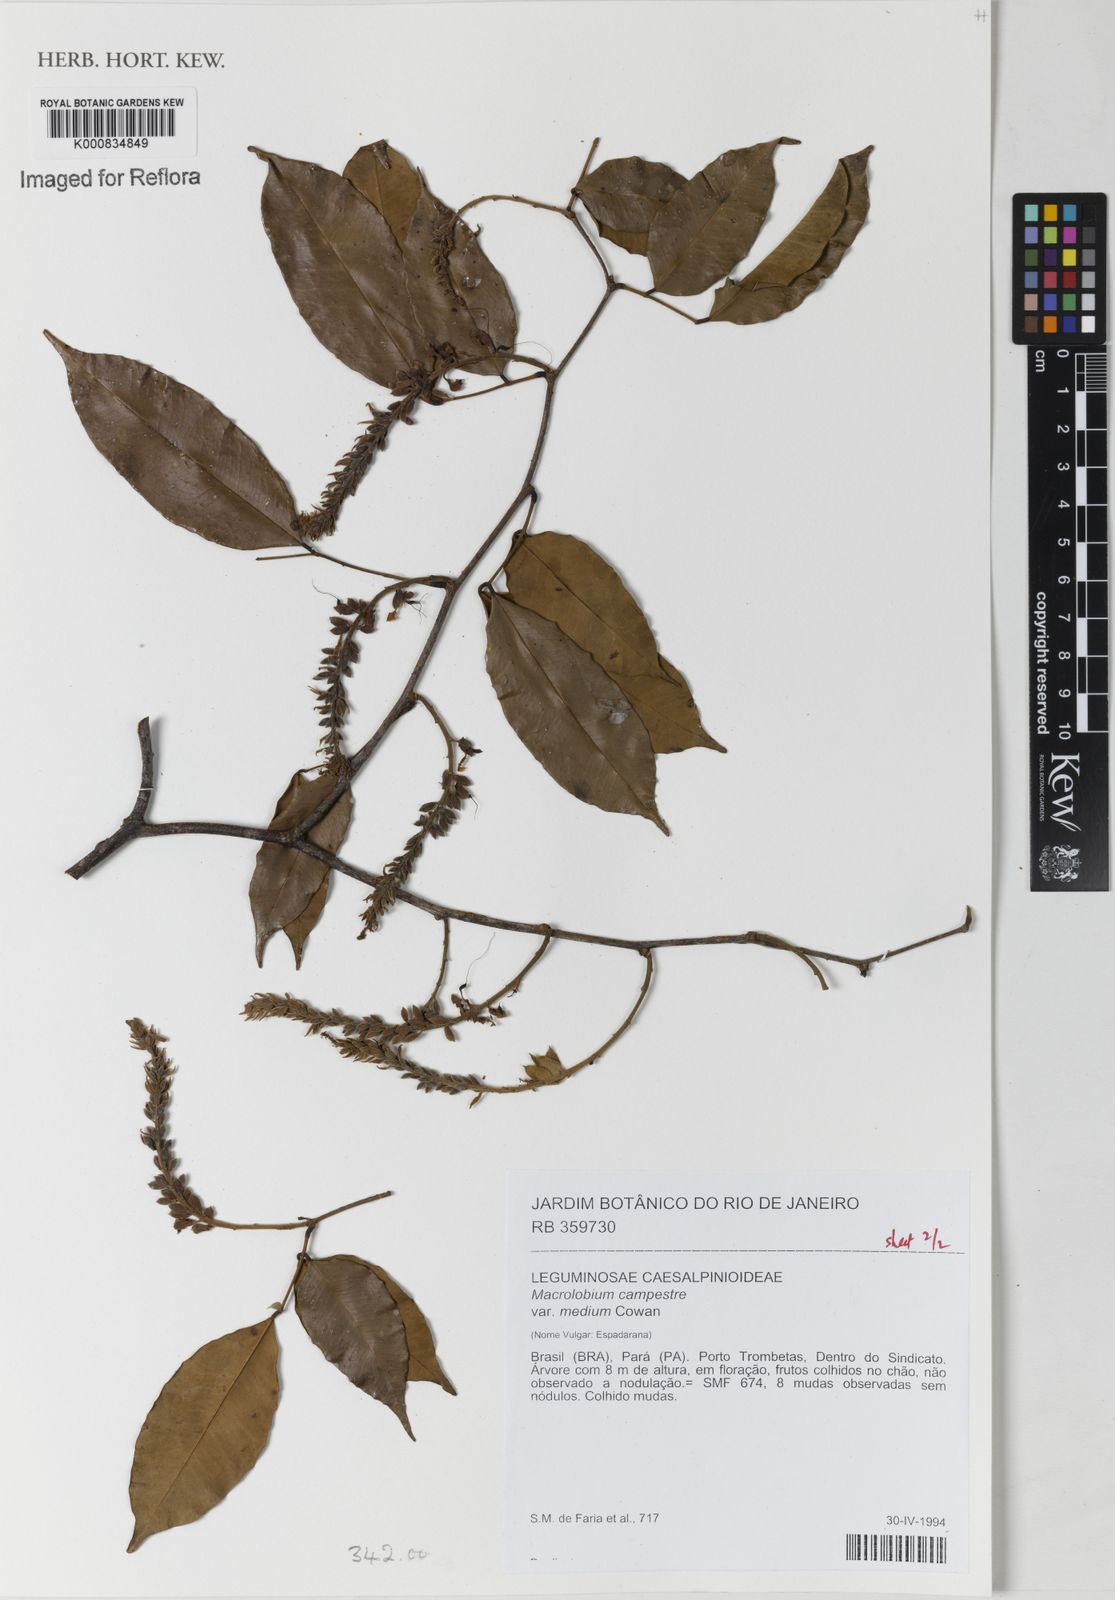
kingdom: Plantae
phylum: Tracheophyta
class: Magnoliopsida
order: Fabales
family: Fabaceae
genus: Macrolobium
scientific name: Macrolobium campestre
